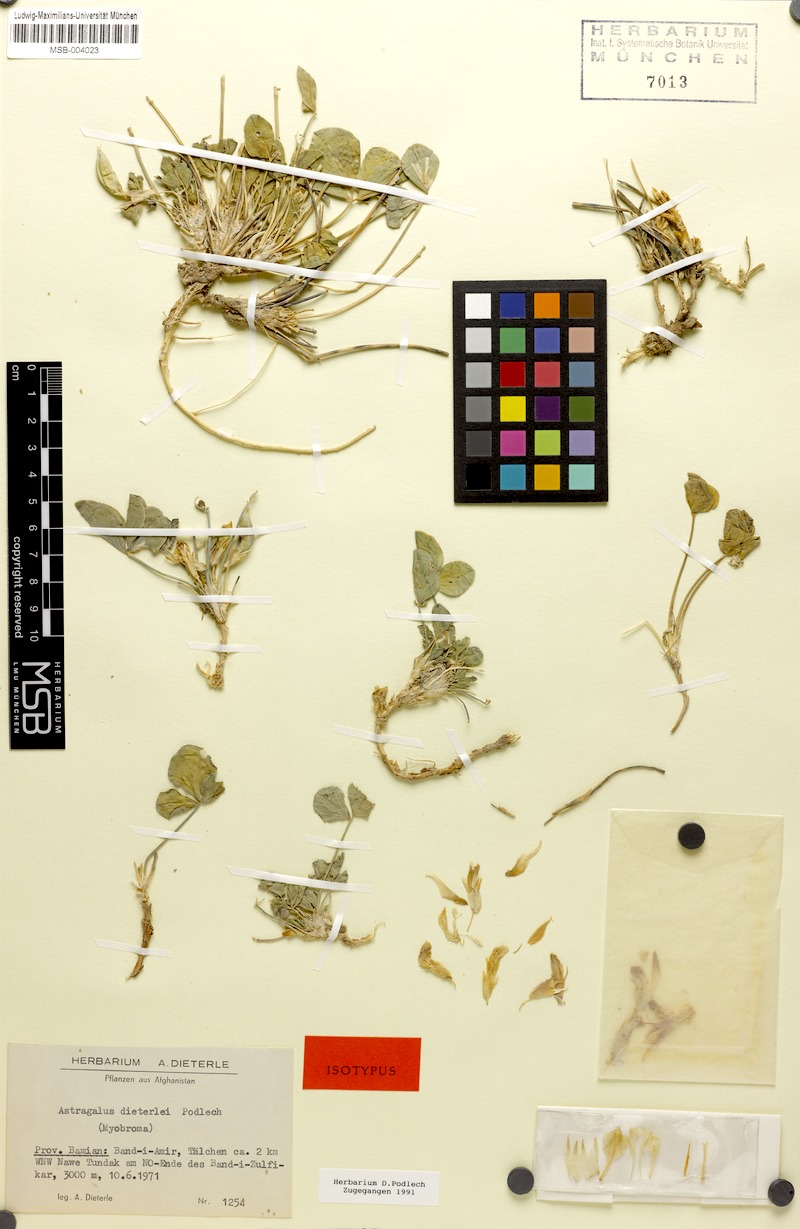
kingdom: Plantae
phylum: Tracheophyta
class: Magnoliopsida
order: Fabales
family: Fabaceae
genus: Astragalus
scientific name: Astragalus dieterlei
